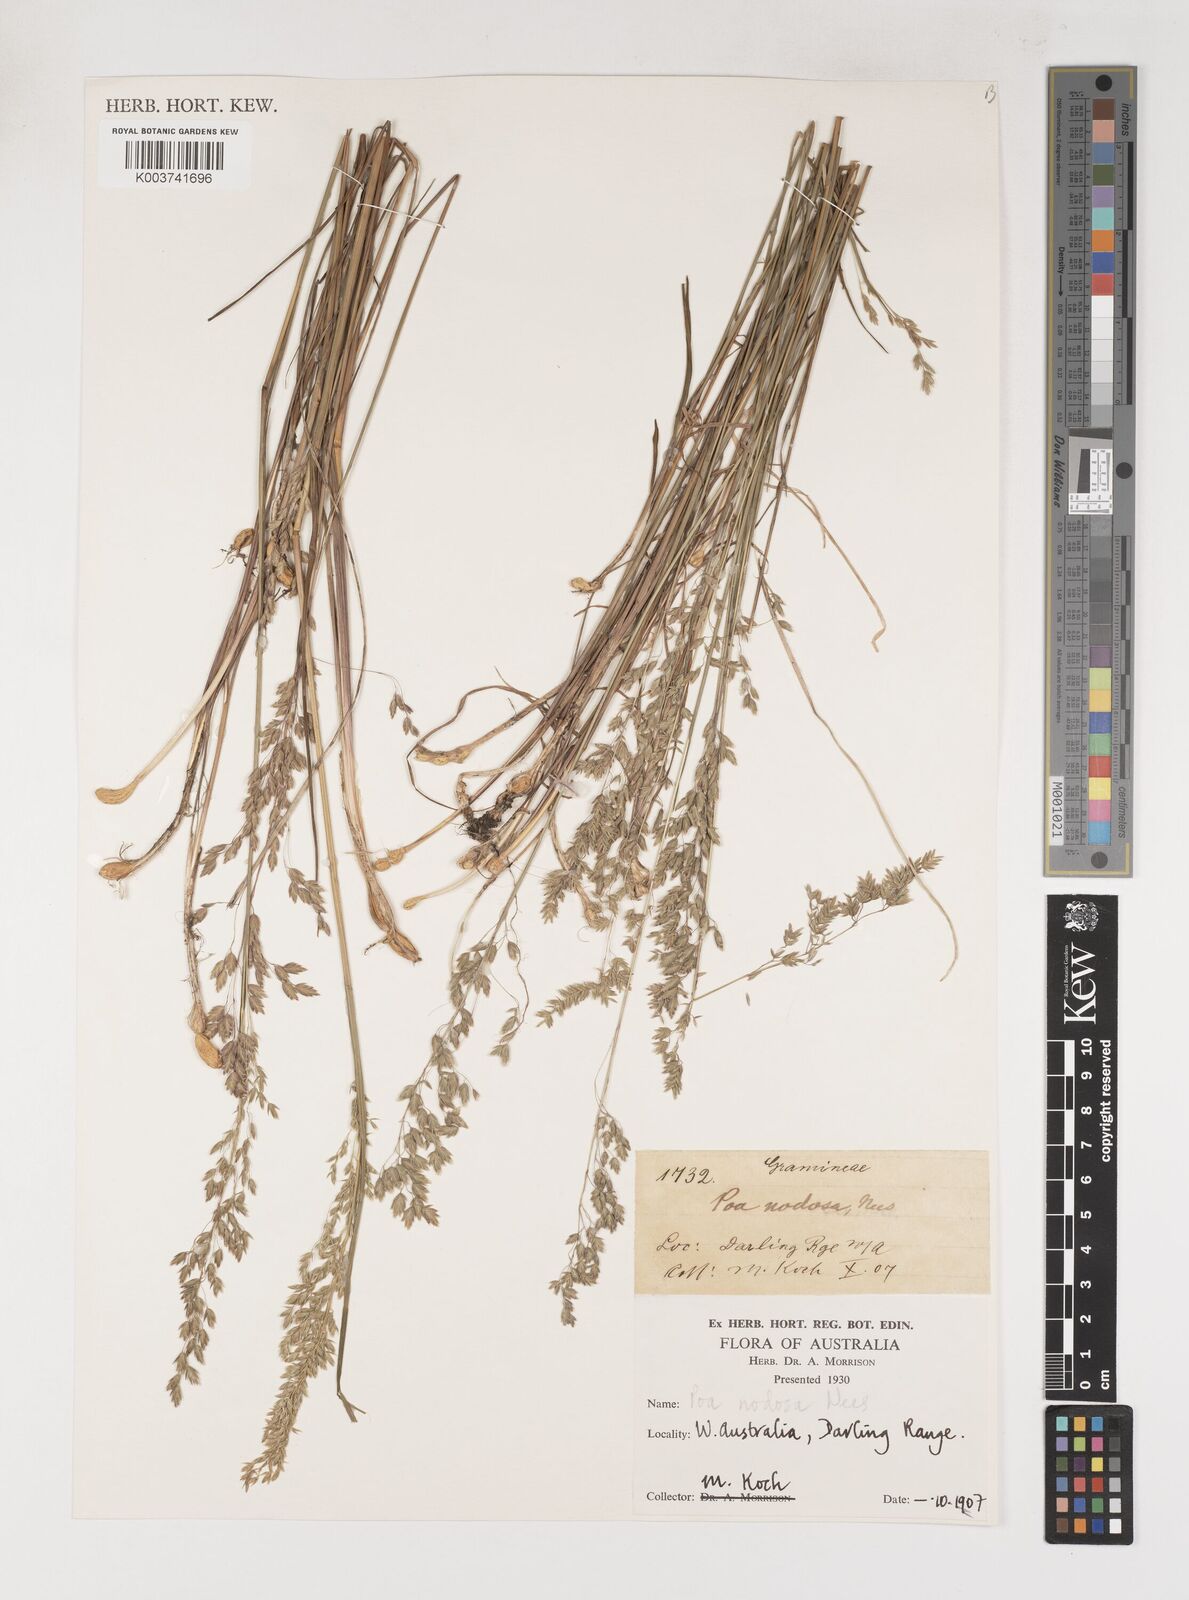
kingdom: Plantae
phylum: Tracheophyta
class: Liliopsida
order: Poales
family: Poaceae
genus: Poa
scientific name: Poa drummondiana
